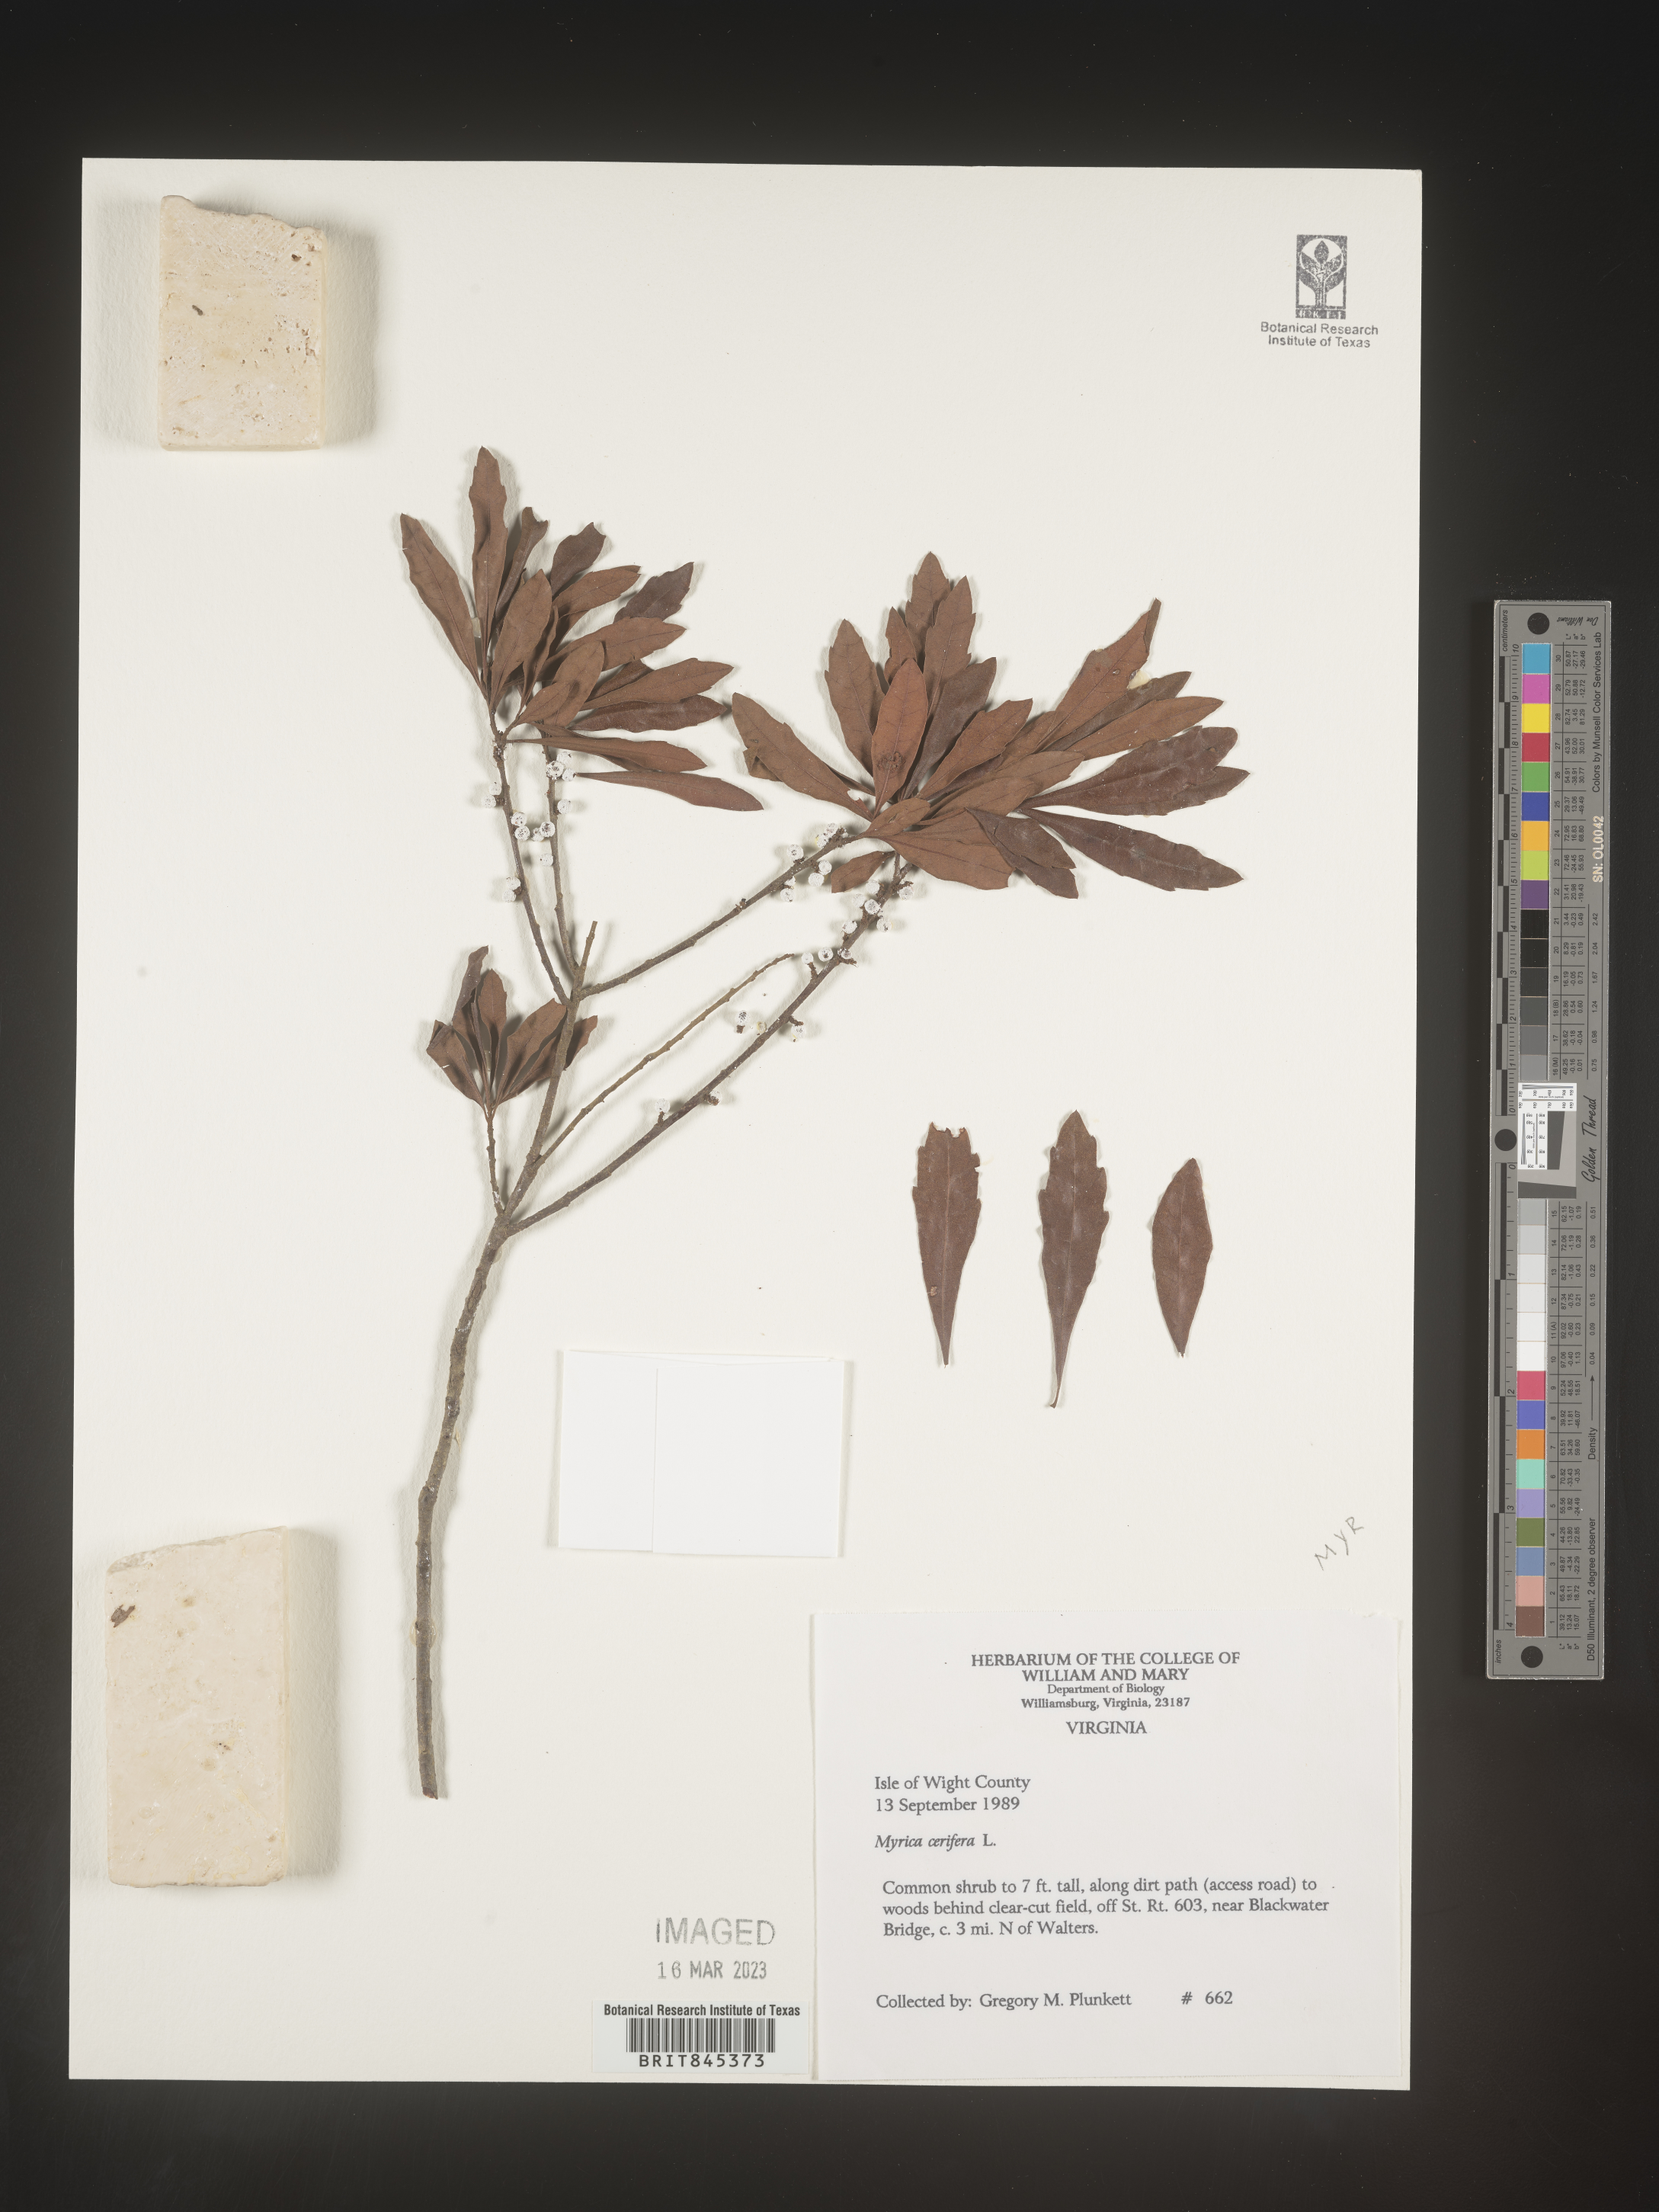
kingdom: Plantae
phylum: Tracheophyta
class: Magnoliopsida
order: Fagales
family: Myricaceae
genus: Morella
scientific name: Morella cerifera
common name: Wax myrtle
